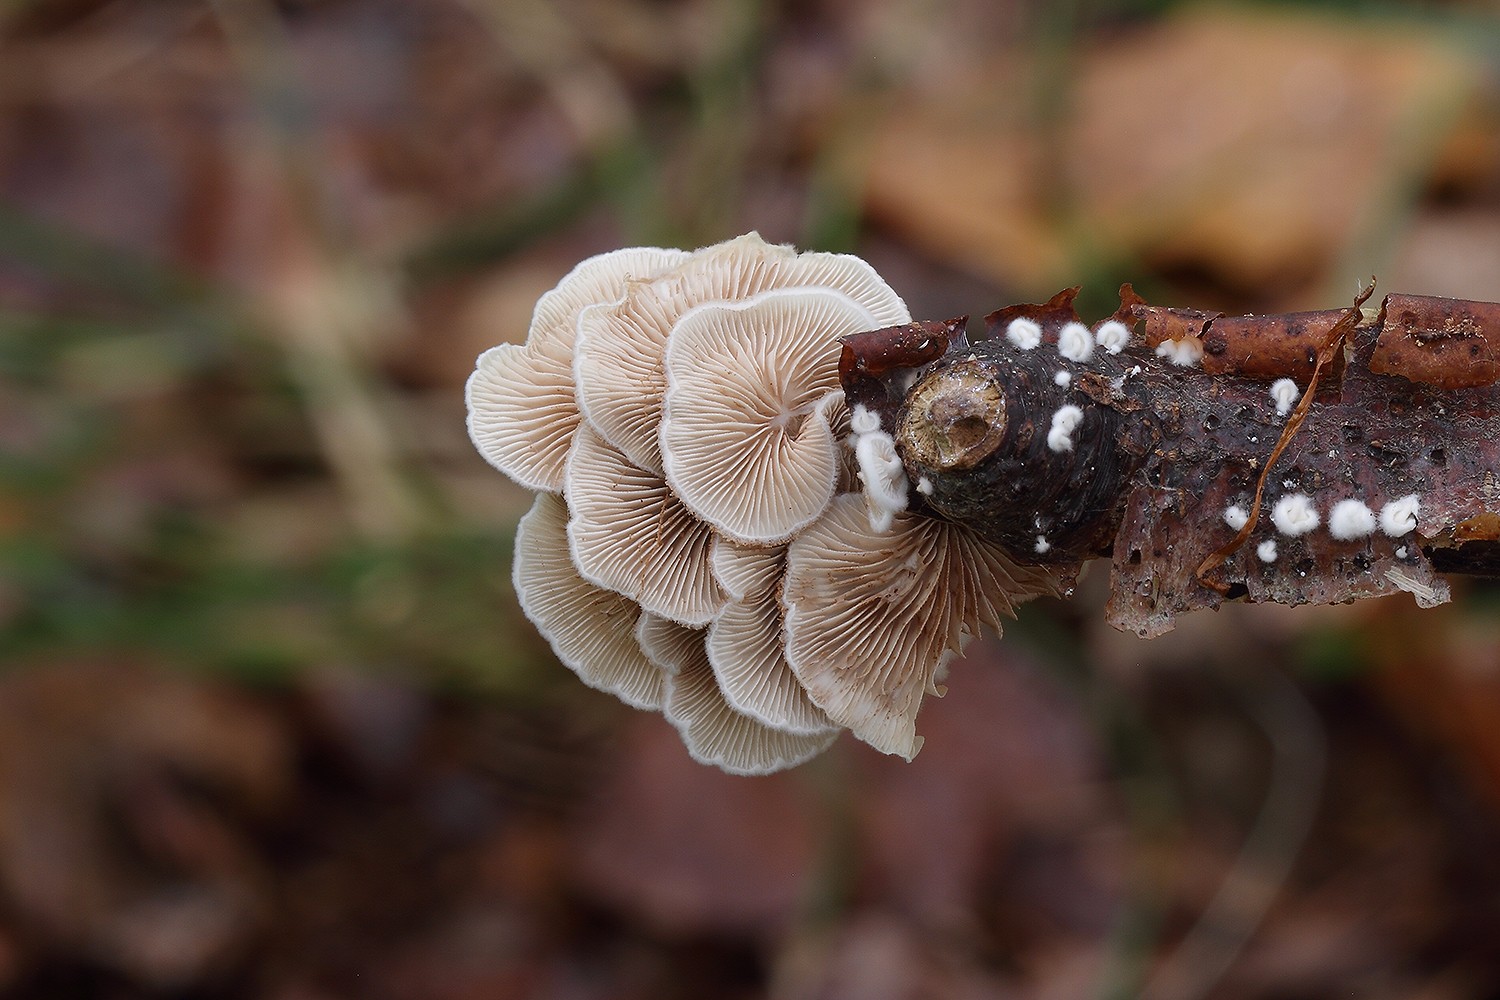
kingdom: Fungi
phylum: Basidiomycota
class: Agaricomycetes
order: Agaricales
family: Crepidotaceae
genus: Crepidotus
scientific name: Crepidotus variabilis
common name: forskelligformet muslingesvamp
